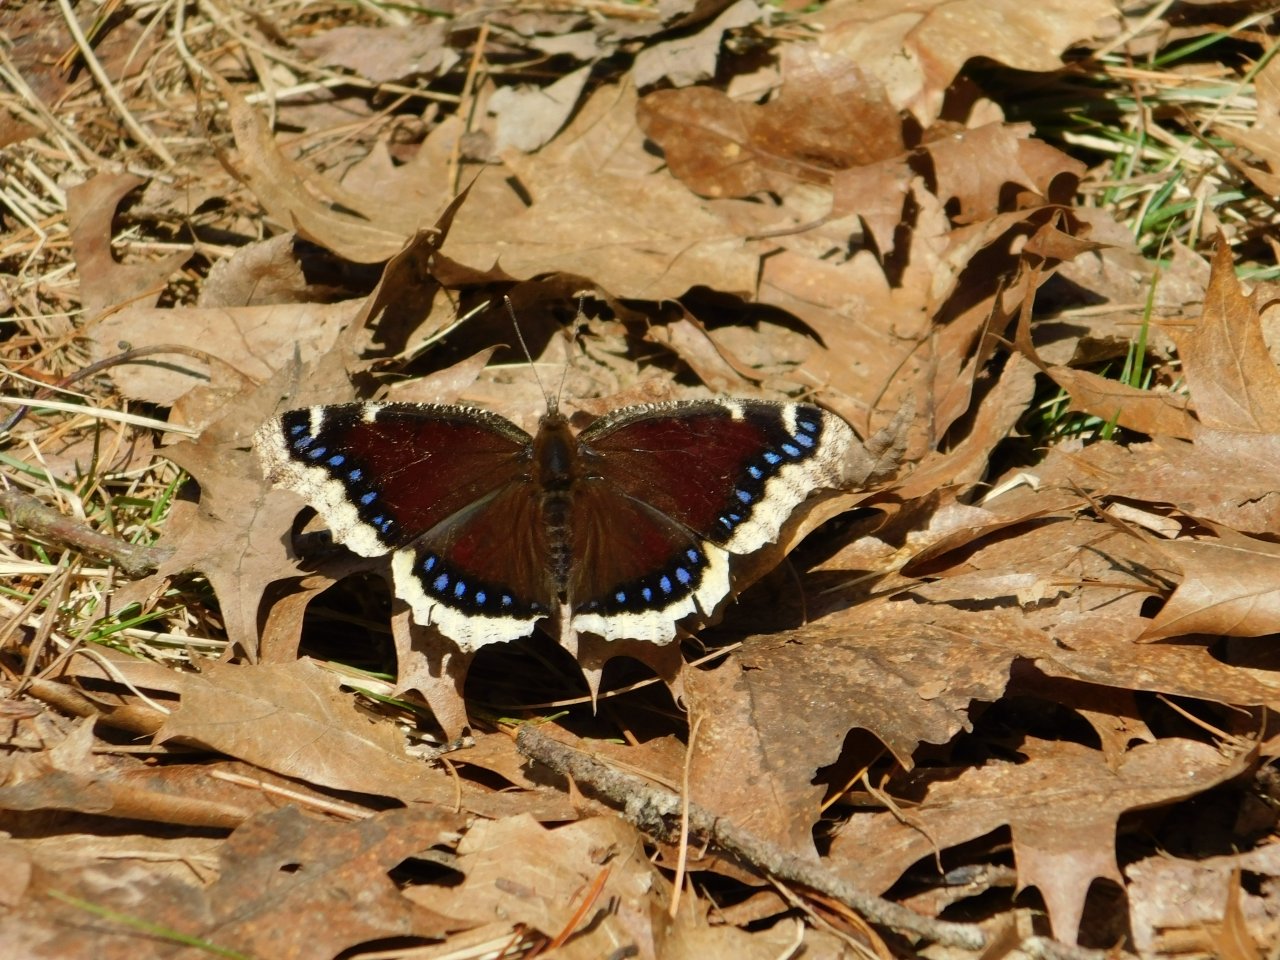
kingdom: Animalia
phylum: Arthropoda
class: Insecta
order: Lepidoptera
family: Nymphalidae
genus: Nymphalis
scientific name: Nymphalis antiopa
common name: Mourning Cloak
